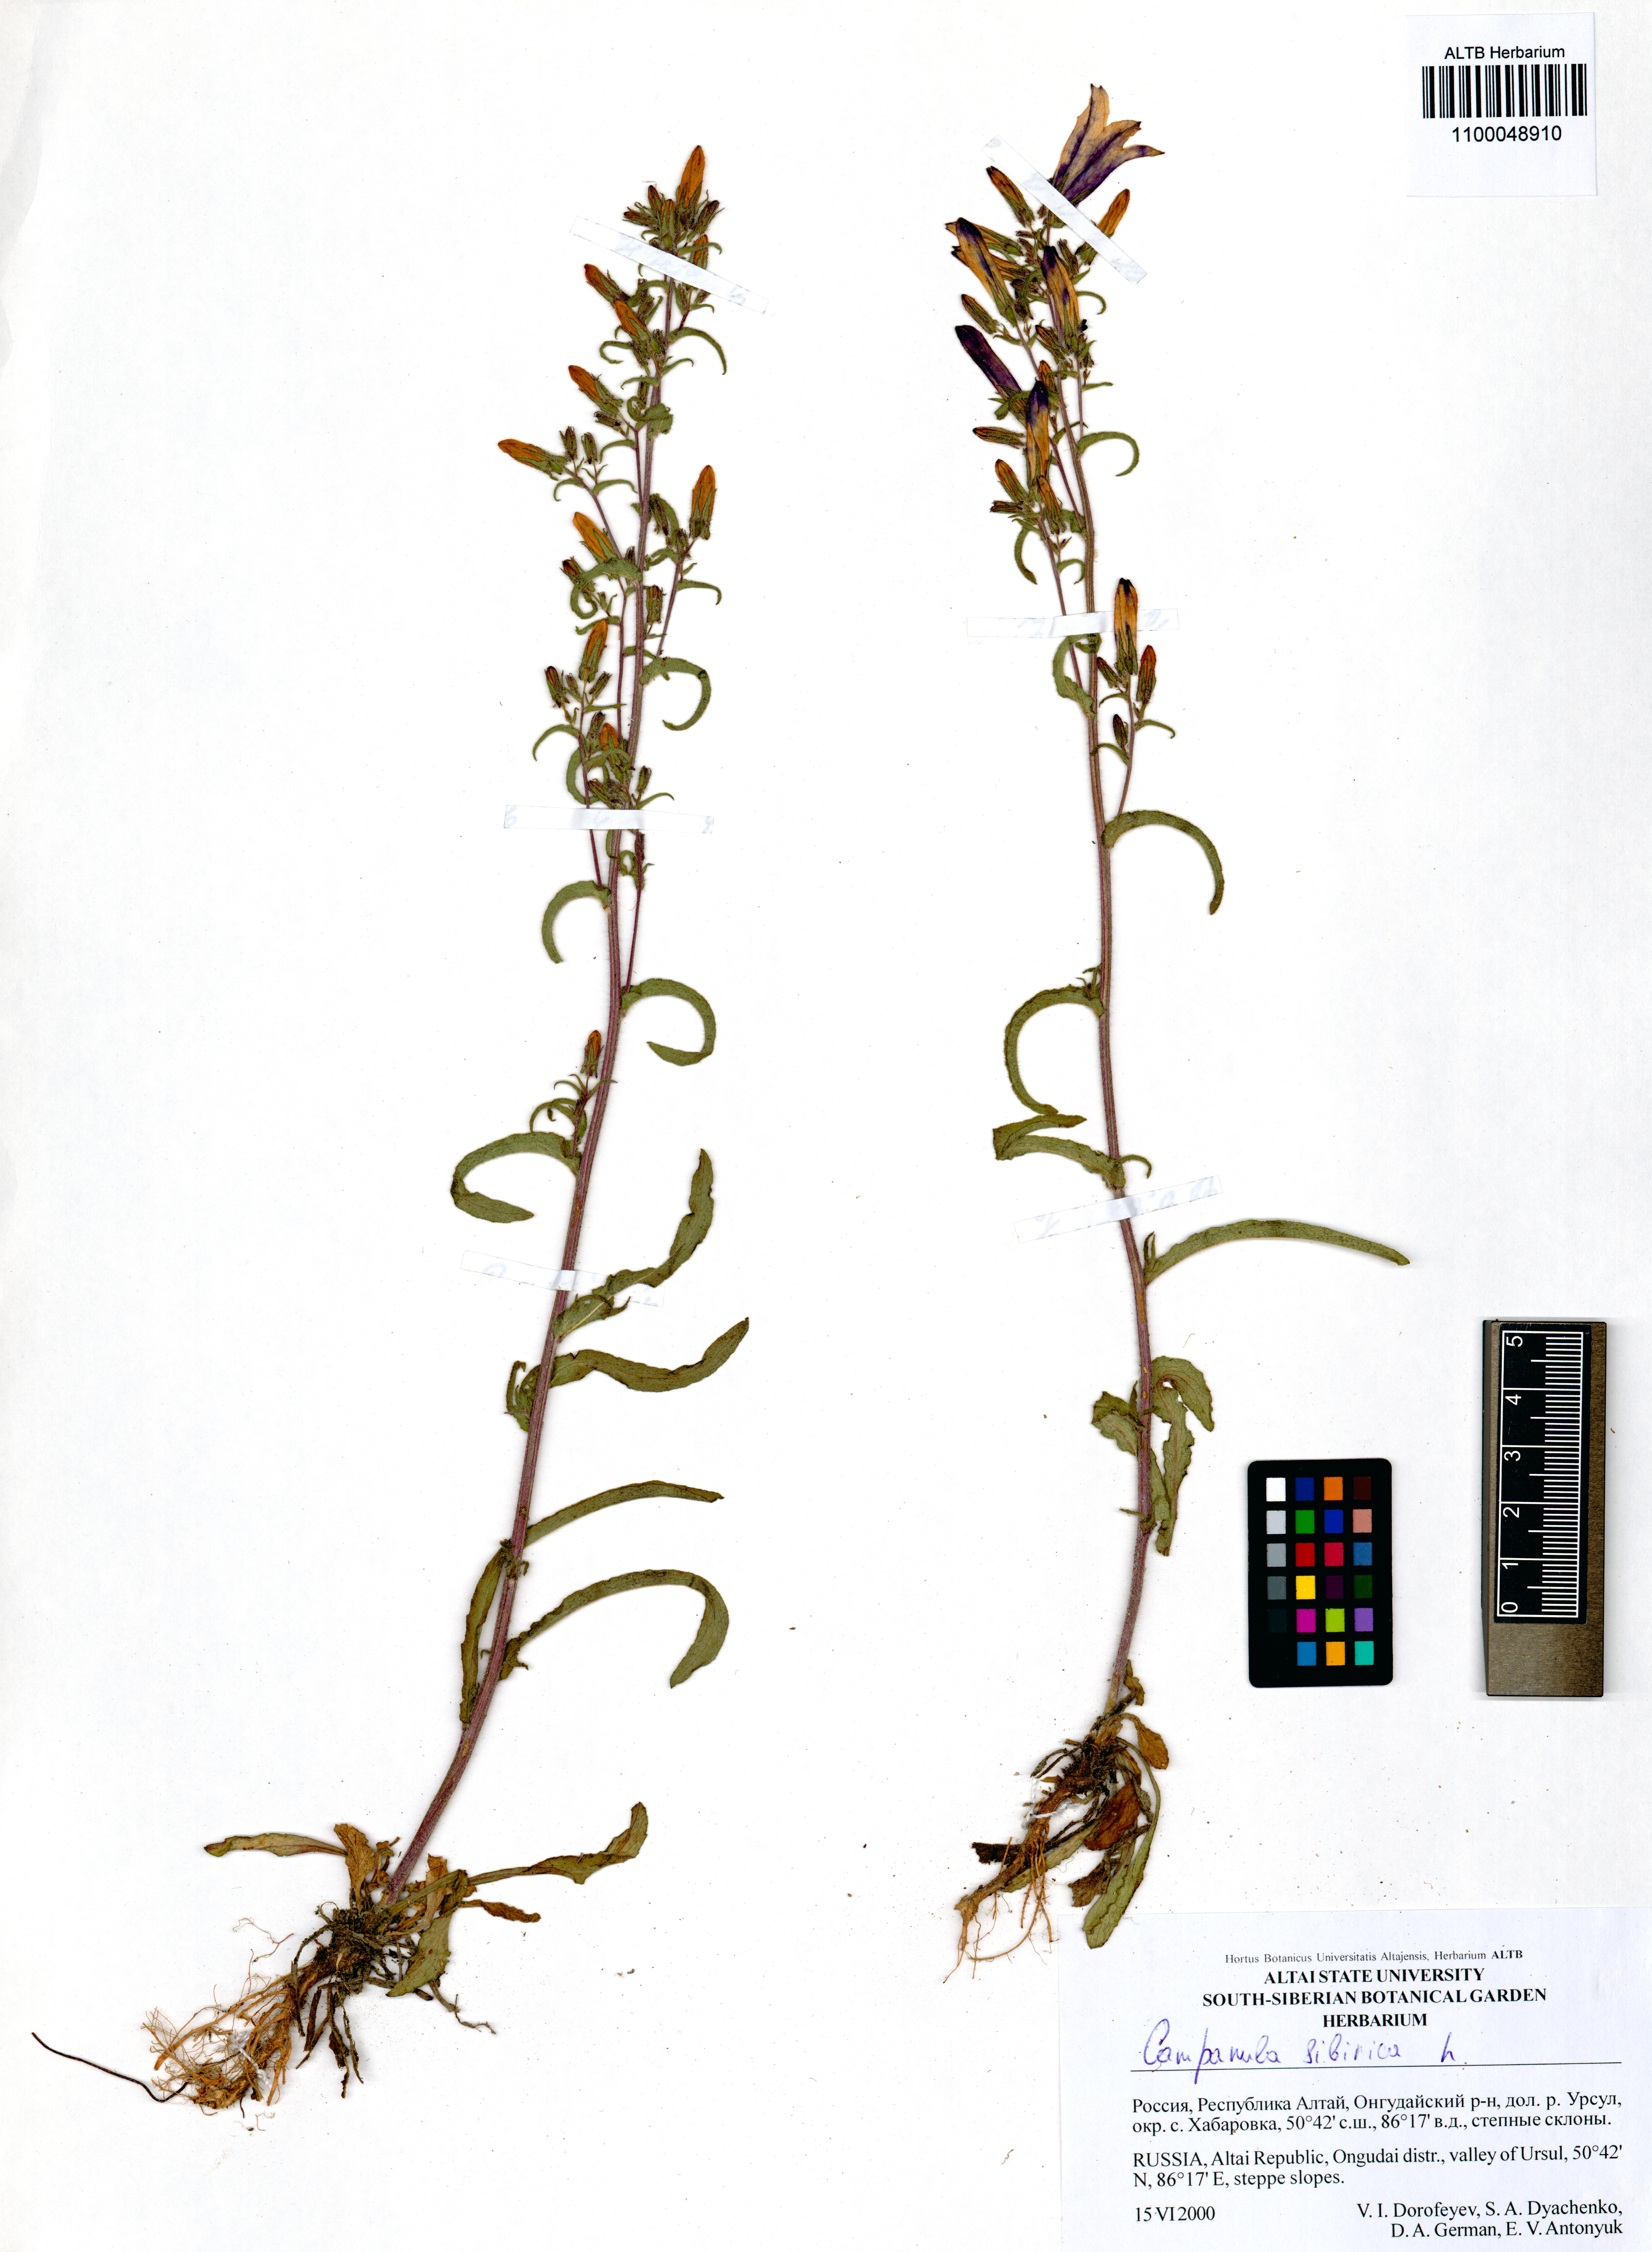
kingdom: Plantae
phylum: Tracheophyta
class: Magnoliopsida
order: Asterales
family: Campanulaceae
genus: Campanula
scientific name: Campanula sibirica
